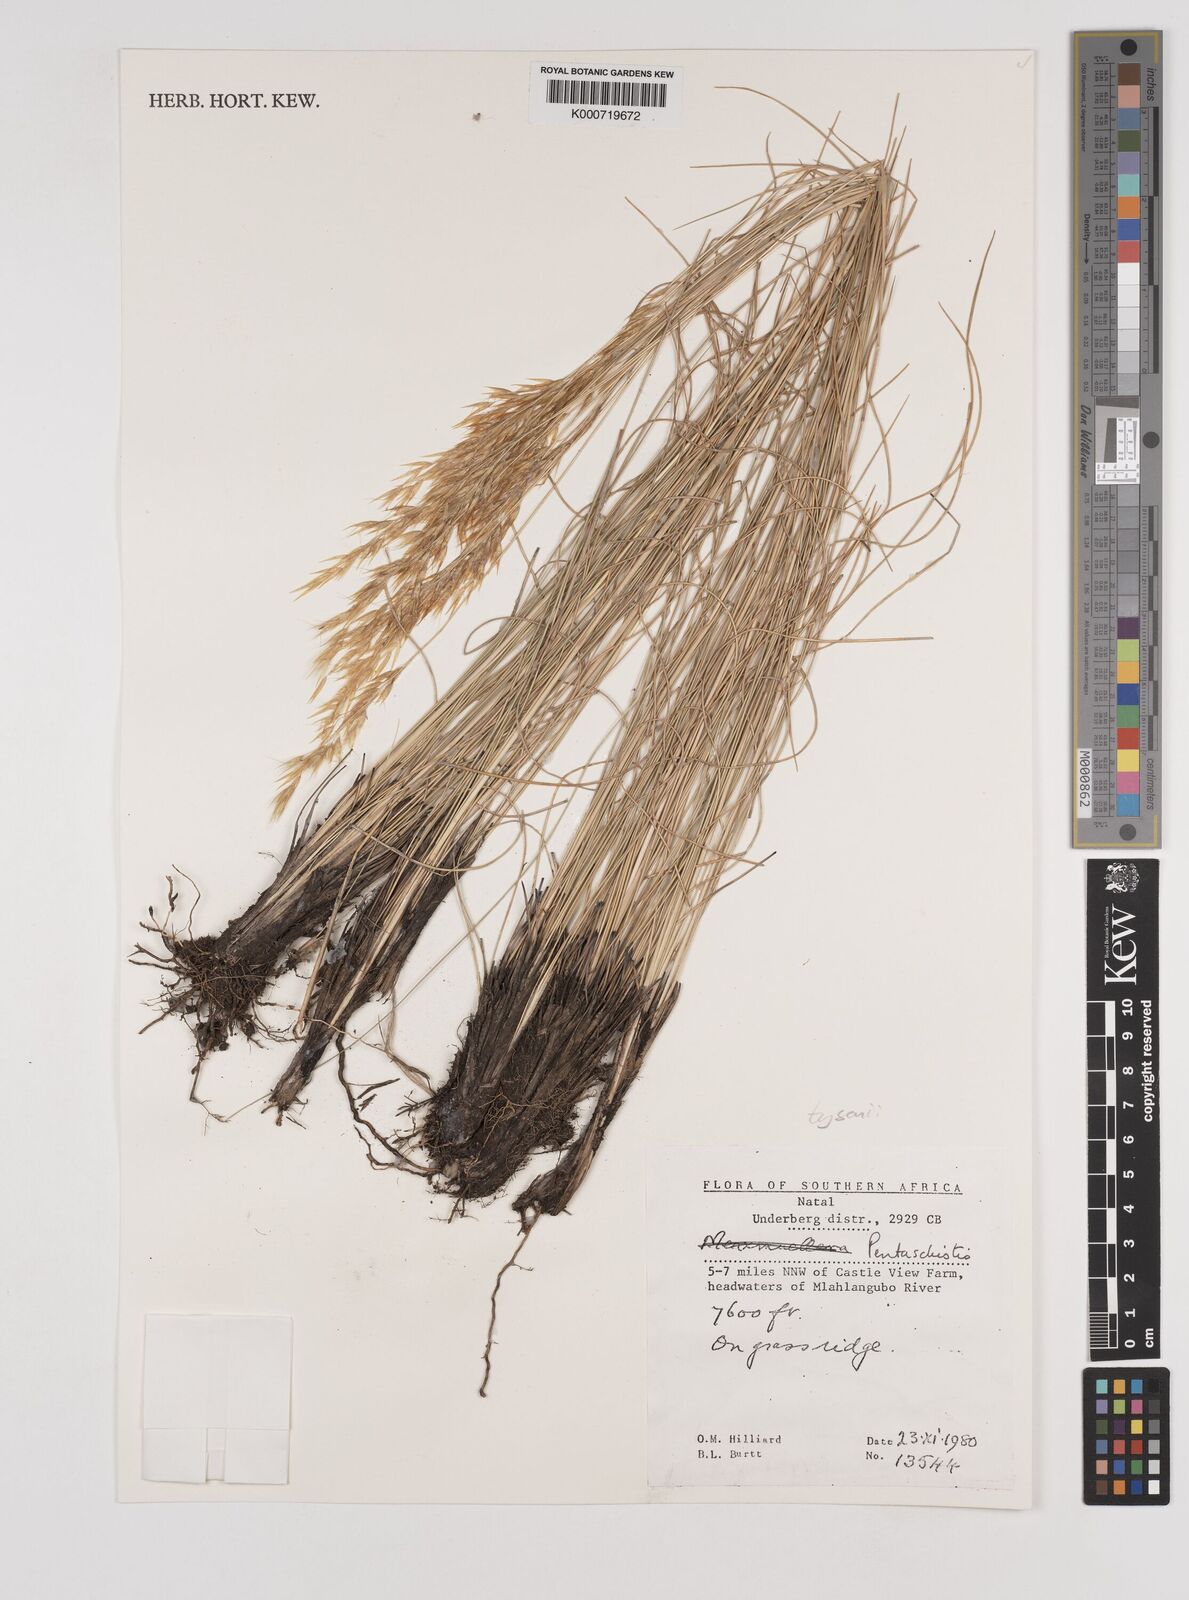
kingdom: Plantae
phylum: Tracheophyta
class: Liliopsida
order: Poales
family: Poaceae
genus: Pentameris
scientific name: Pentameris tysonii
